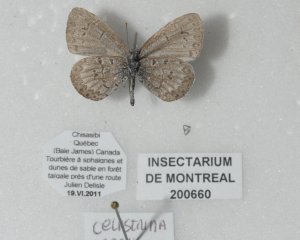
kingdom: Animalia
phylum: Arthropoda
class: Insecta
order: Lepidoptera
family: Lycaenidae
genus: Celastrina
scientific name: Celastrina lucia
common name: Northern Spring Azure
